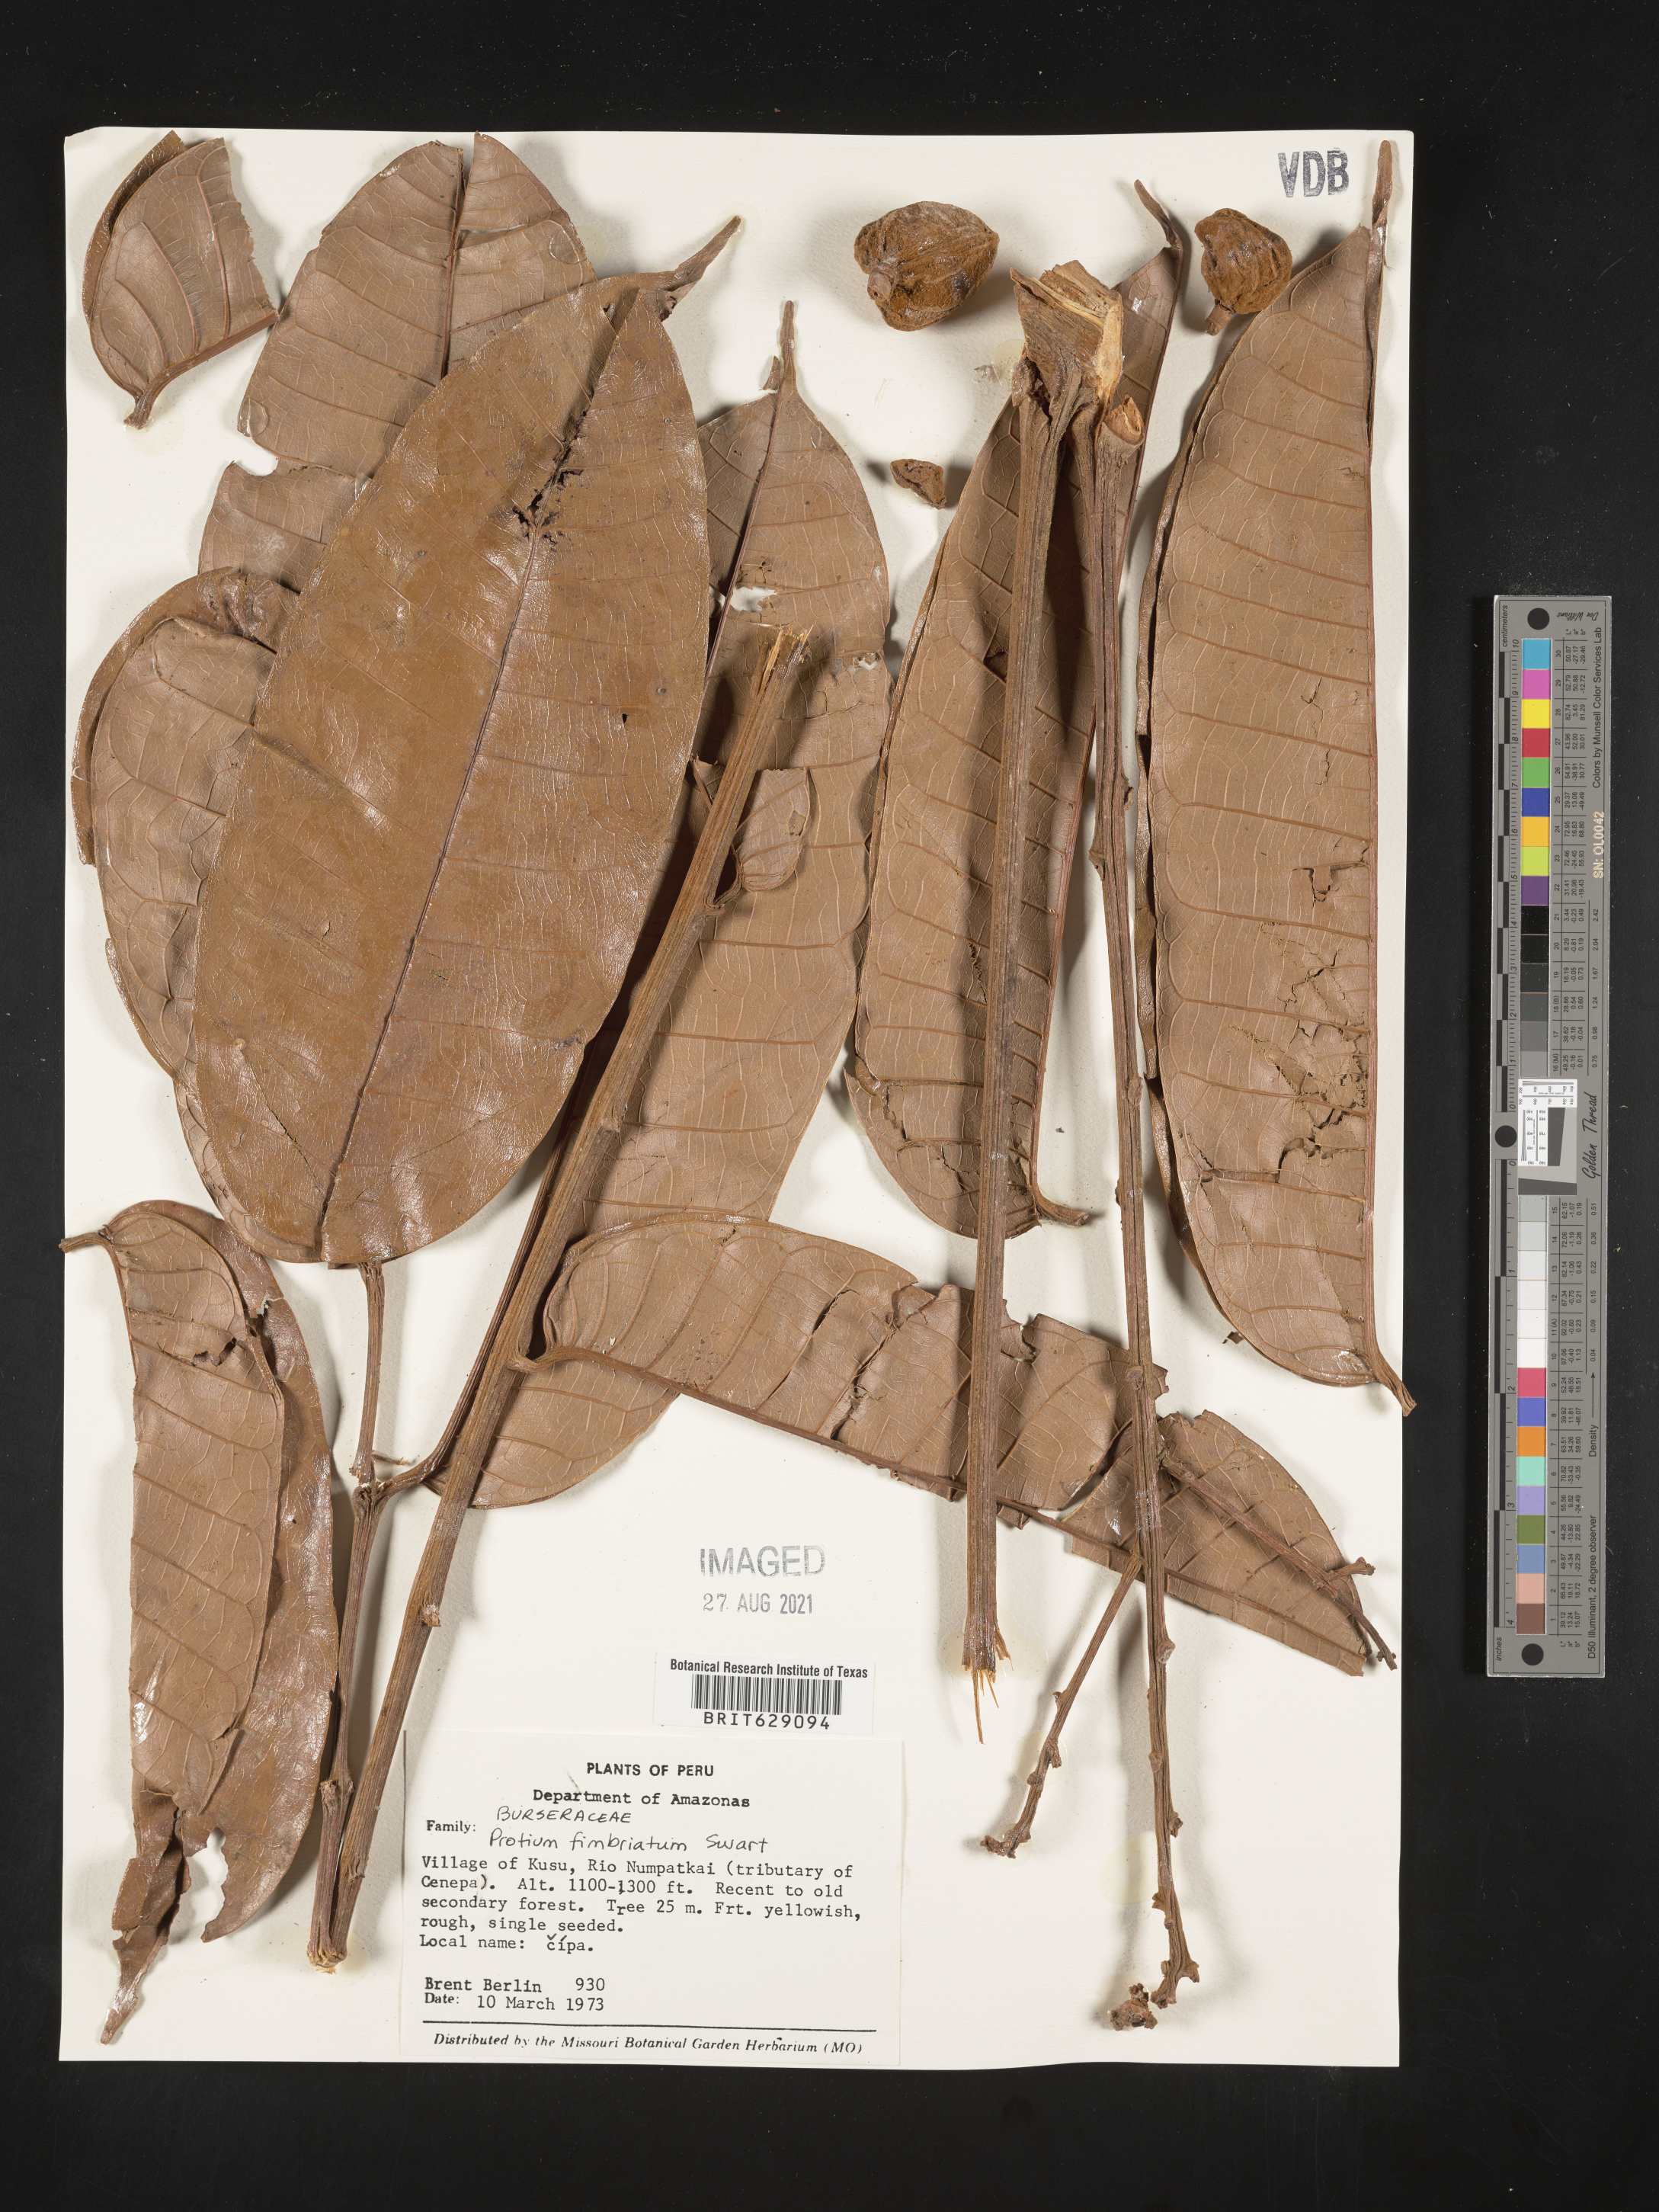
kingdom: Plantae
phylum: Tracheophyta
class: Magnoliopsida
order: Sapindales
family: Burseraceae
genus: Protium
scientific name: Protium amazonicum
